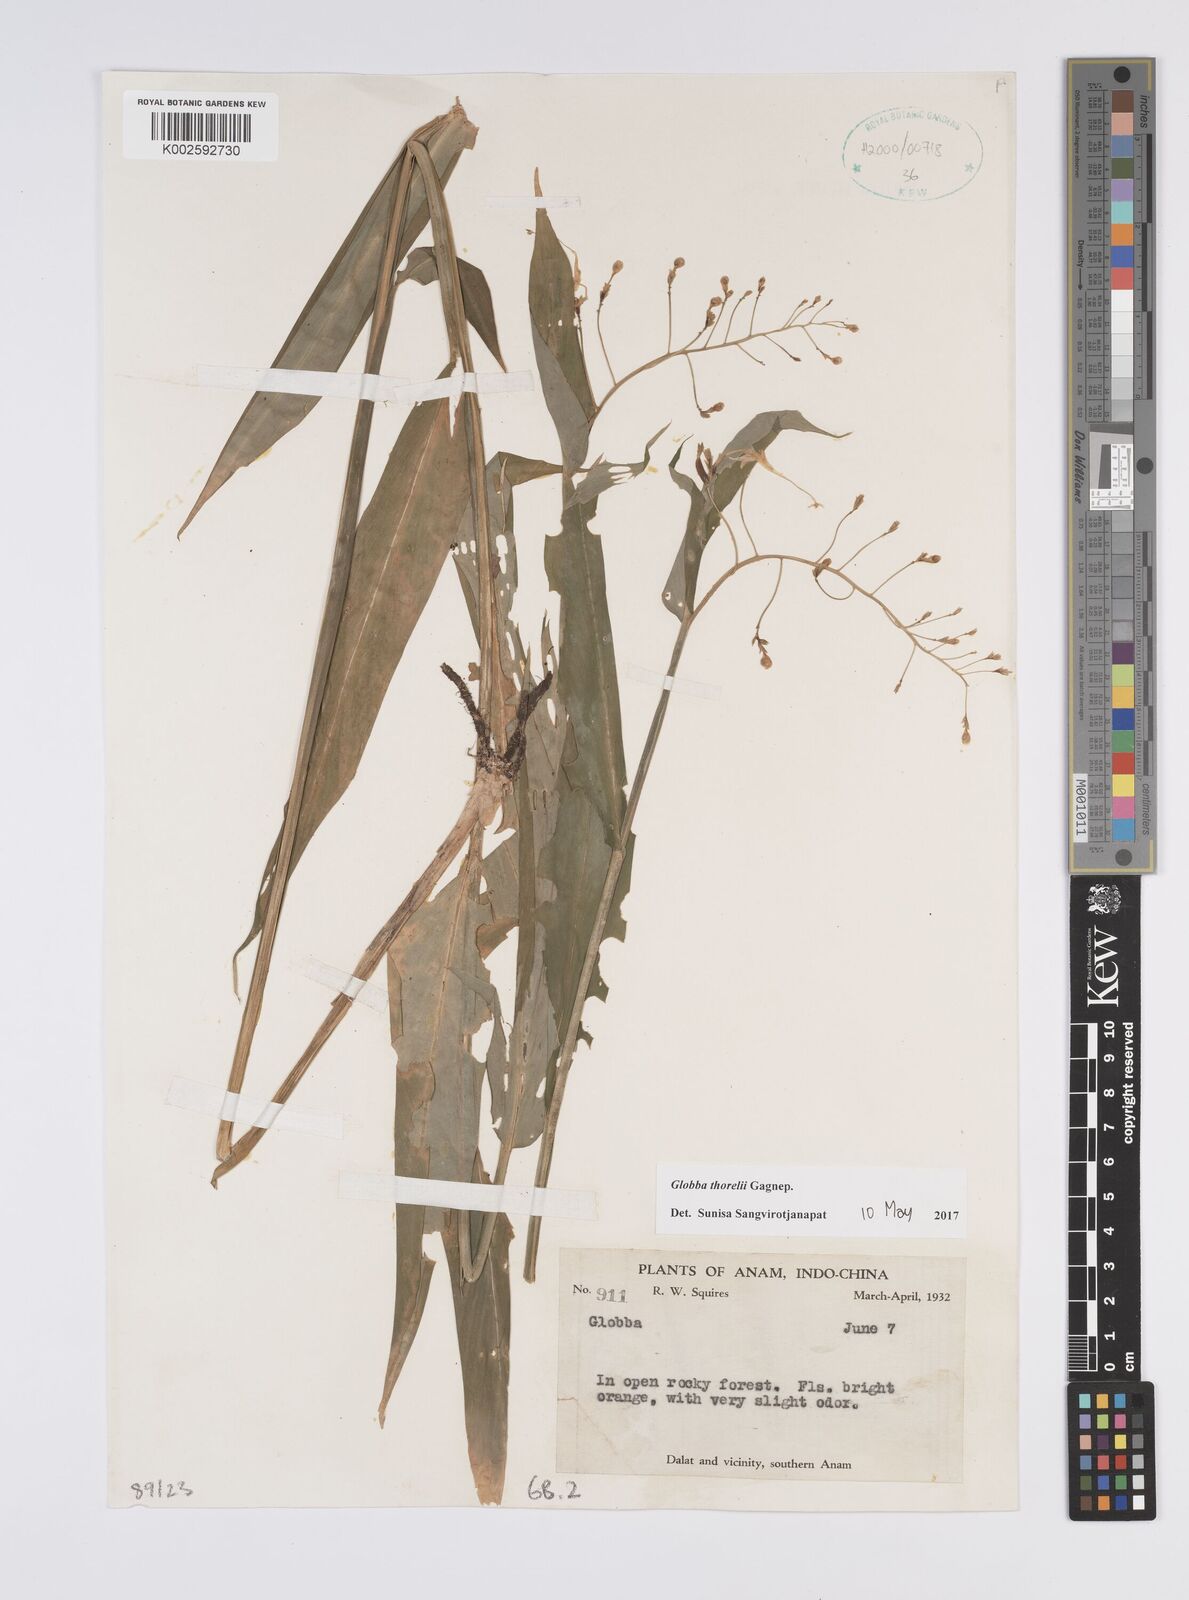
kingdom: Plantae
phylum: Tracheophyta
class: Liliopsida
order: Zingiberales
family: Zingiberaceae
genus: Globba
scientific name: Globba thorelii
